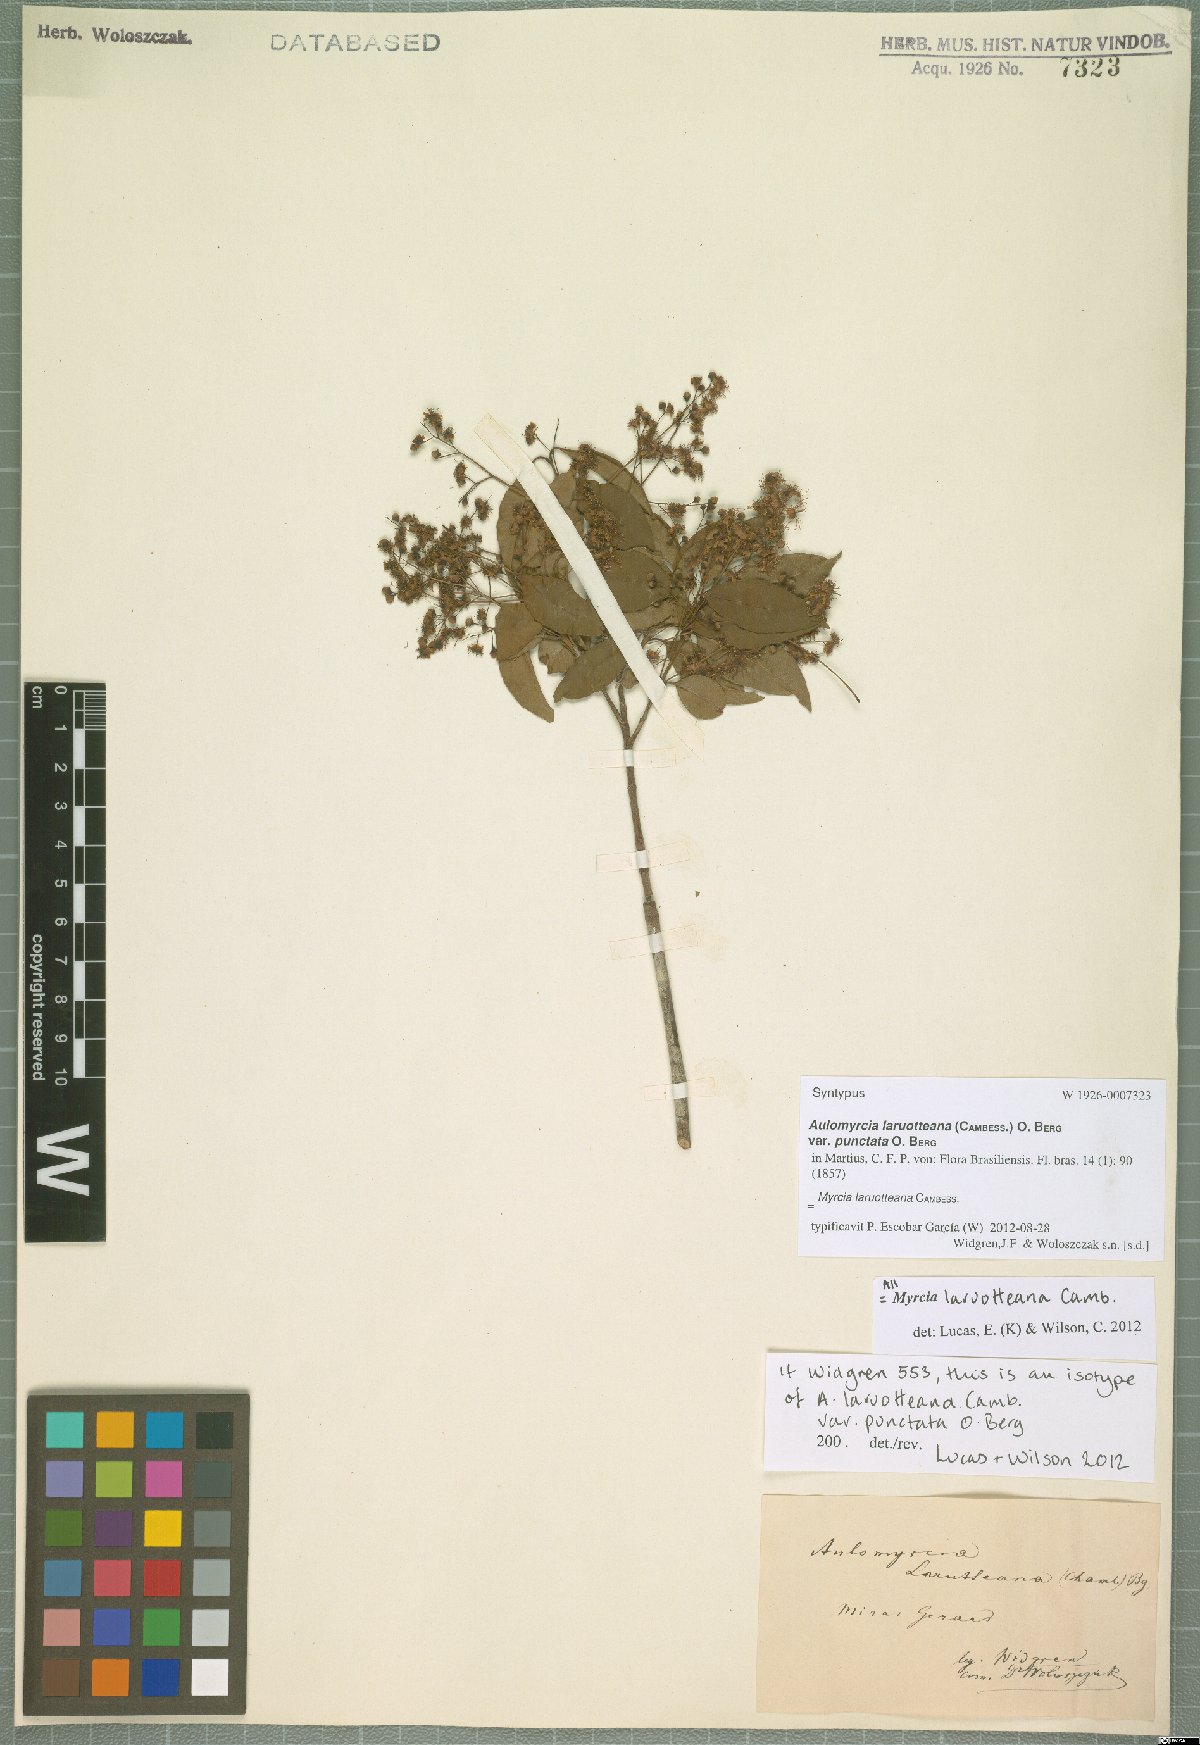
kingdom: Plantae
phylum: Tracheophyta
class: Magnoliopsida
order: Myrtales
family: Myrtaceae
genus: Myrcia
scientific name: Myrcia laruotteana
